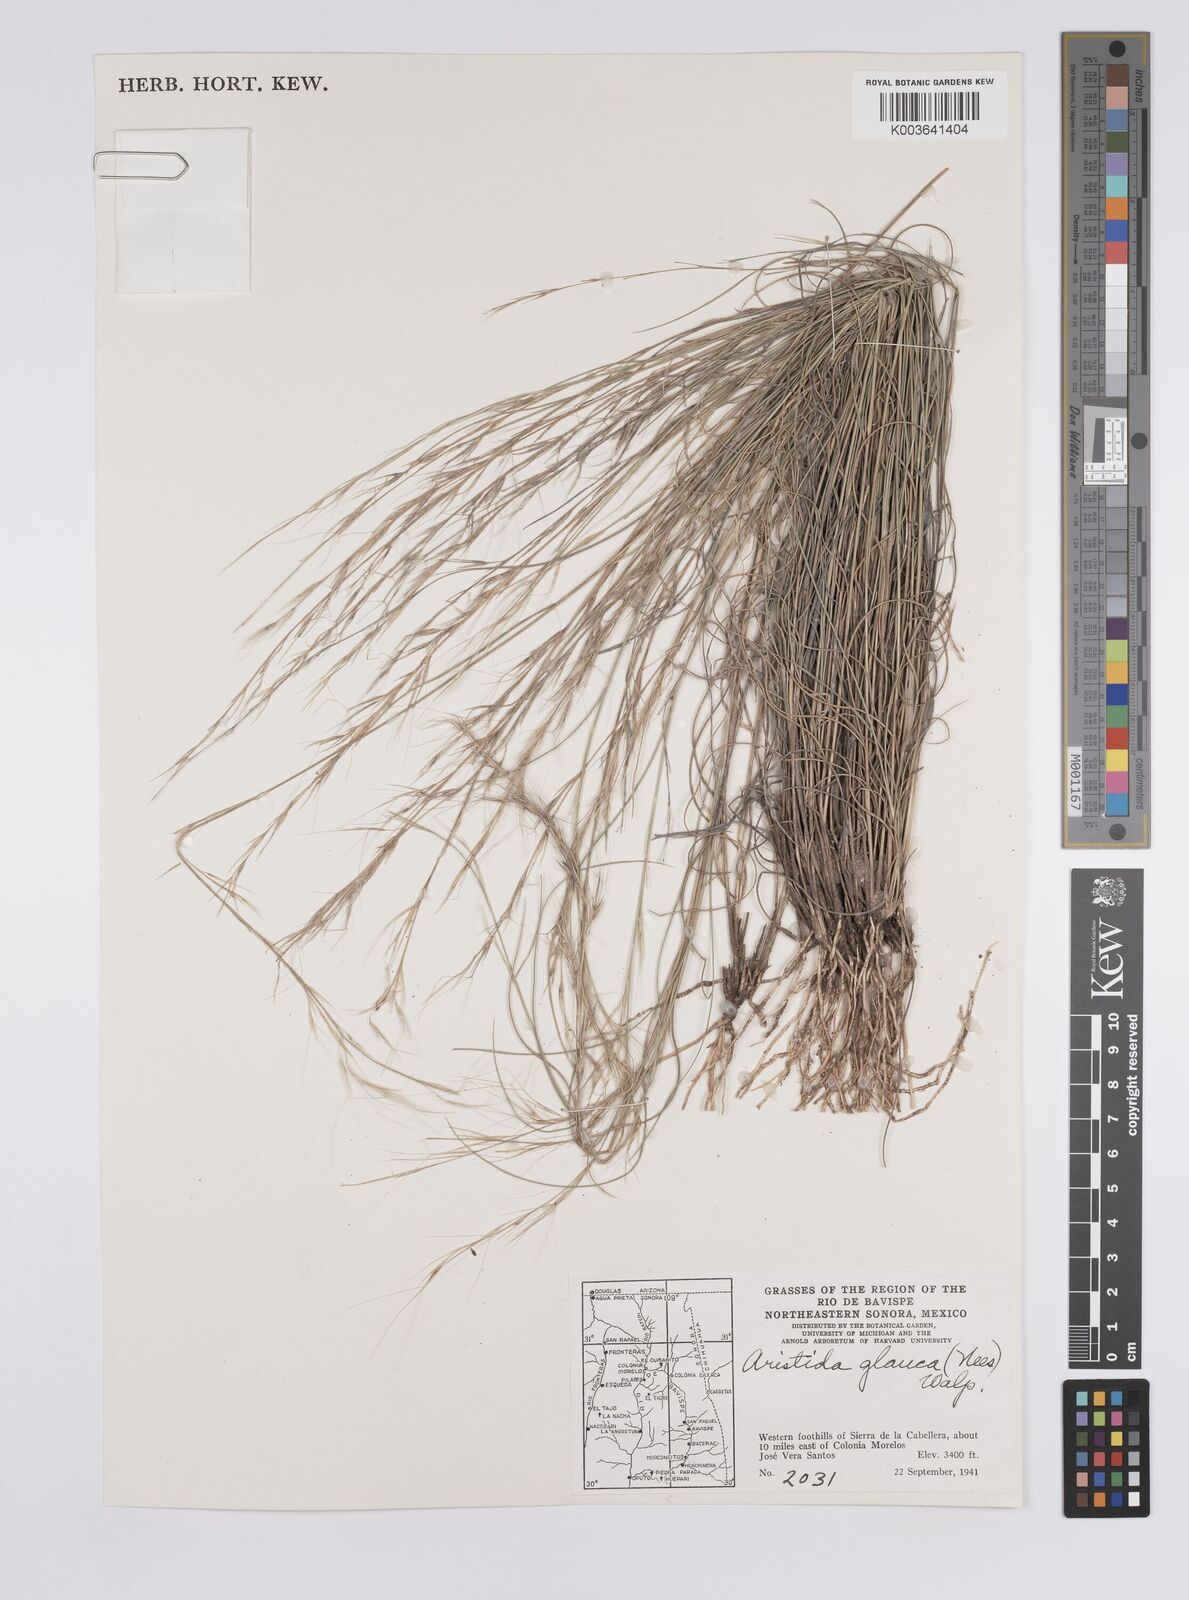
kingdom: Plantae
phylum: Tracheophyta
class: Liliopsida
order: Poales
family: Poaceae
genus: Aristida
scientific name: Aristida purpurea
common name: Purple threeawn
